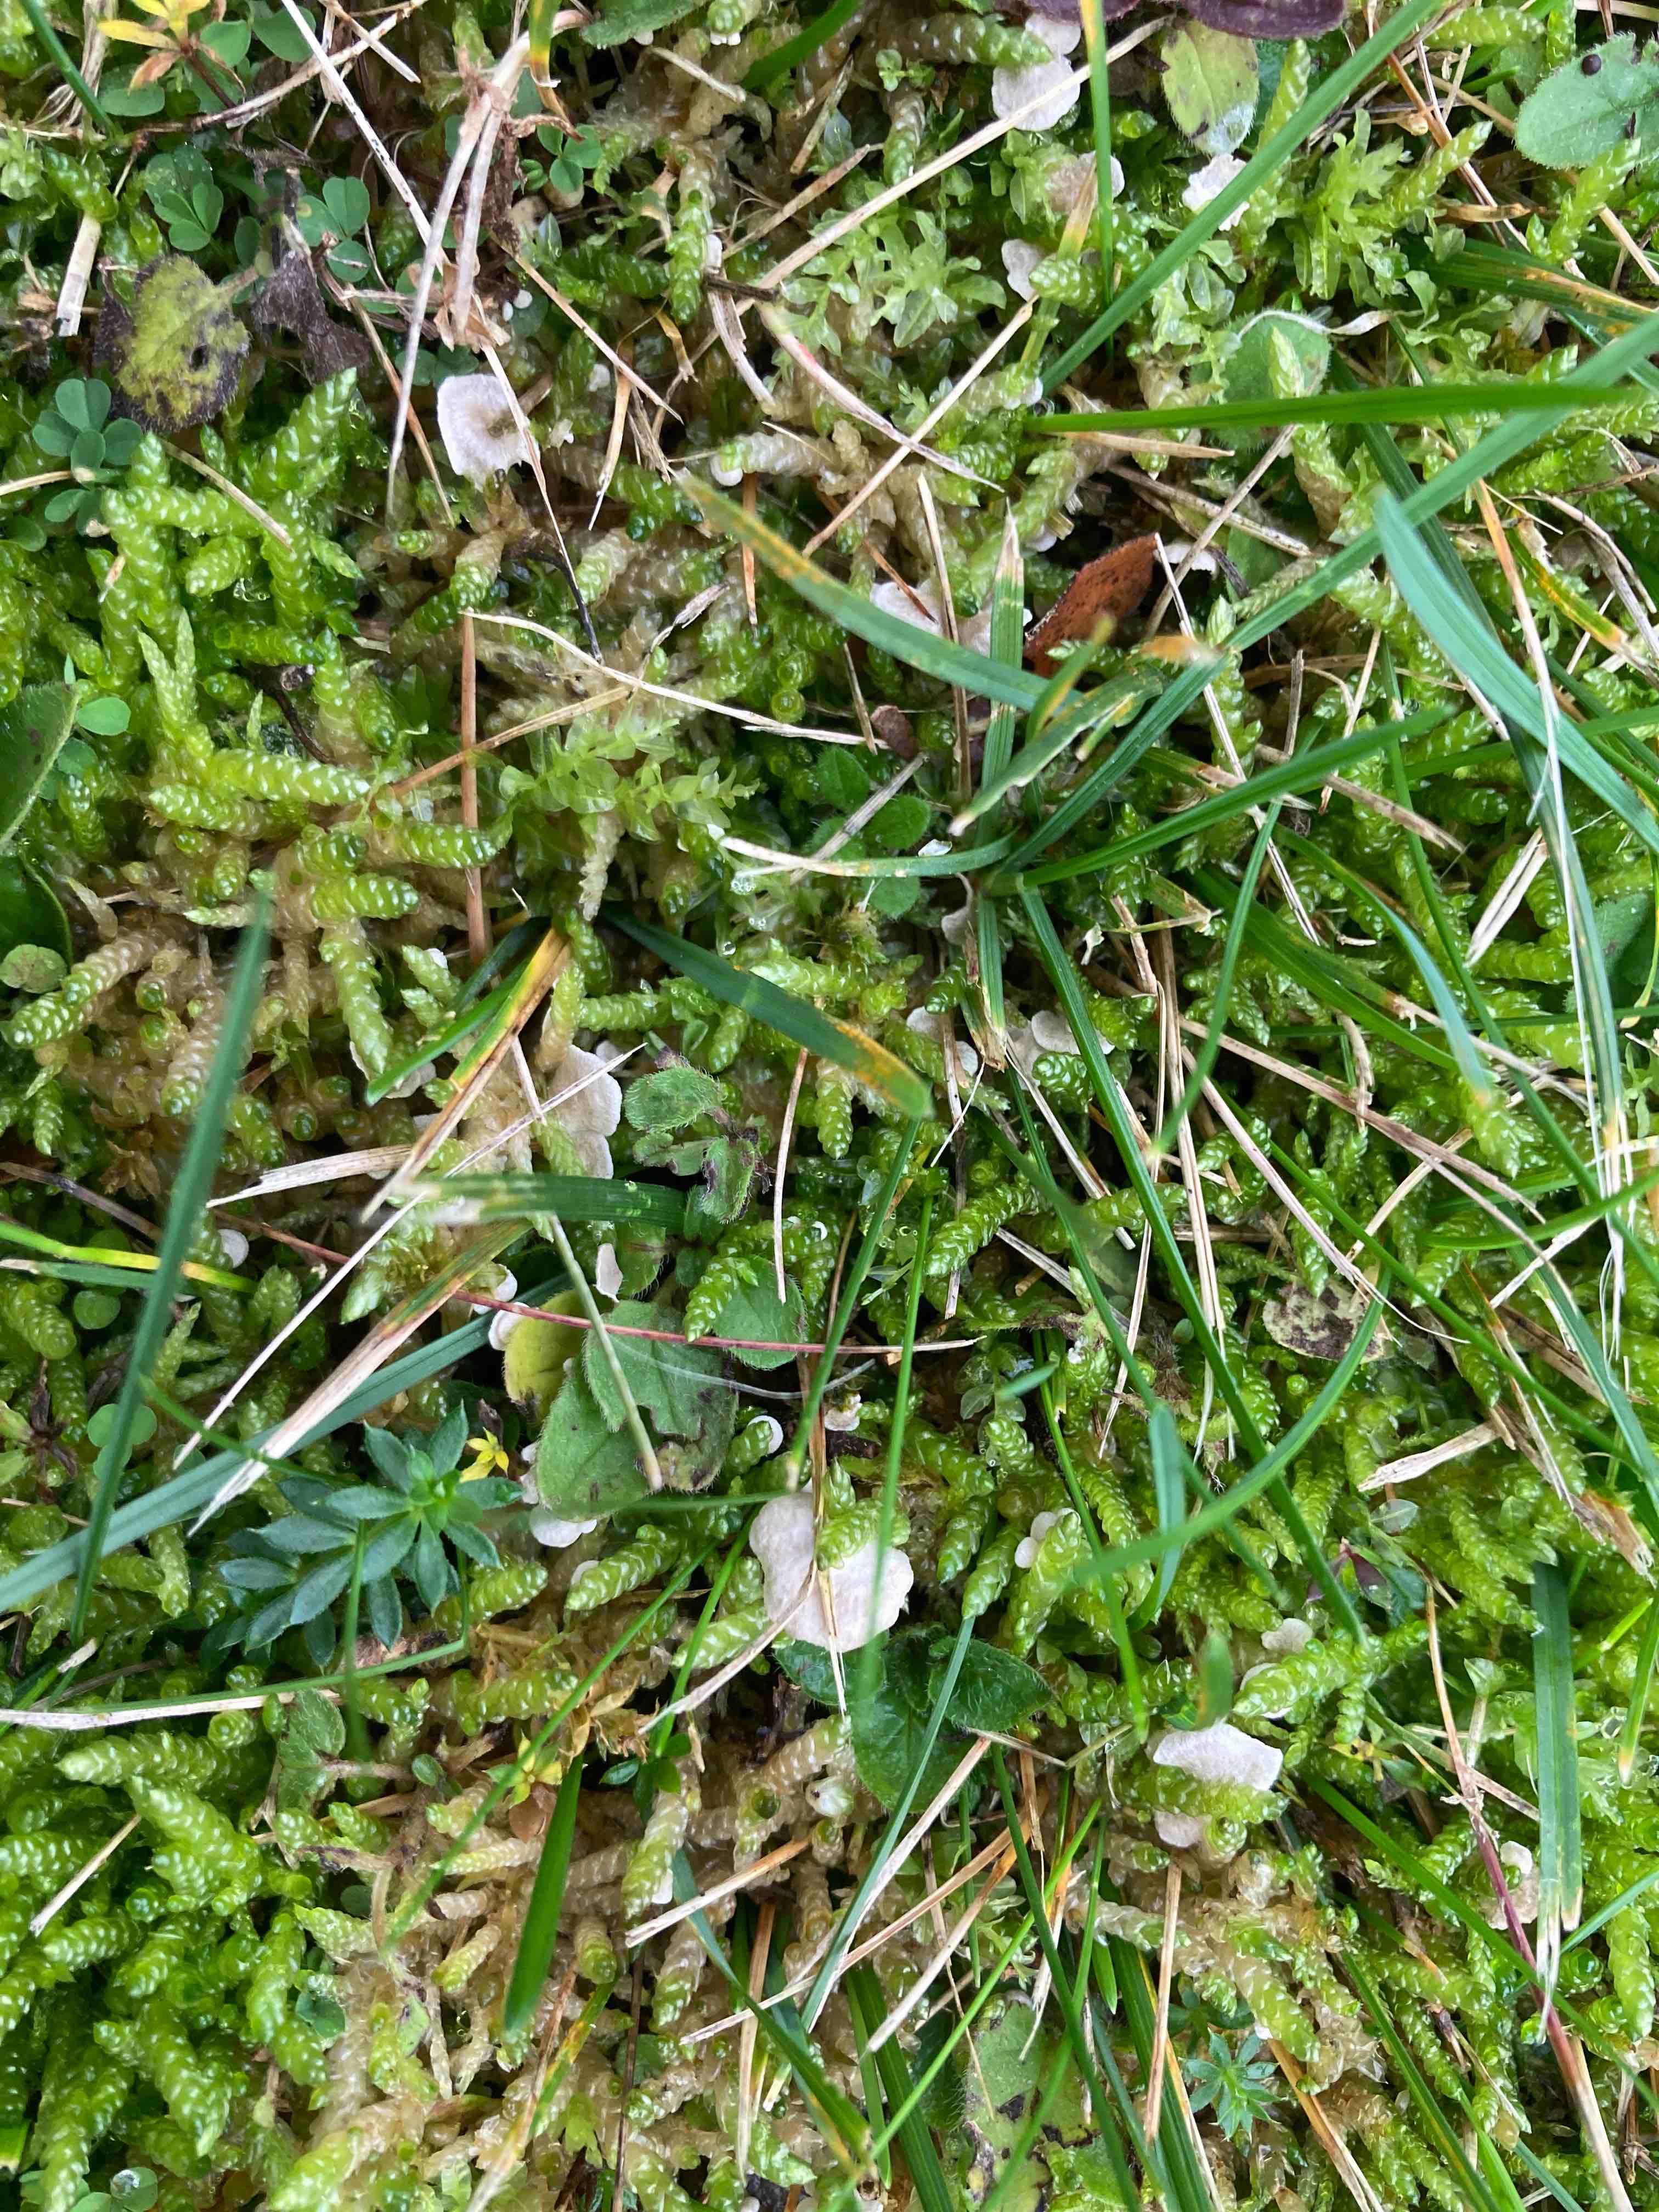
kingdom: Fungi
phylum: Basidiomycota
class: Agaricomycetes
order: Agaricales
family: Hygrophoraceae
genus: Arrhenia
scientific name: Arrhenia retiruga
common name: lille fontænehat
